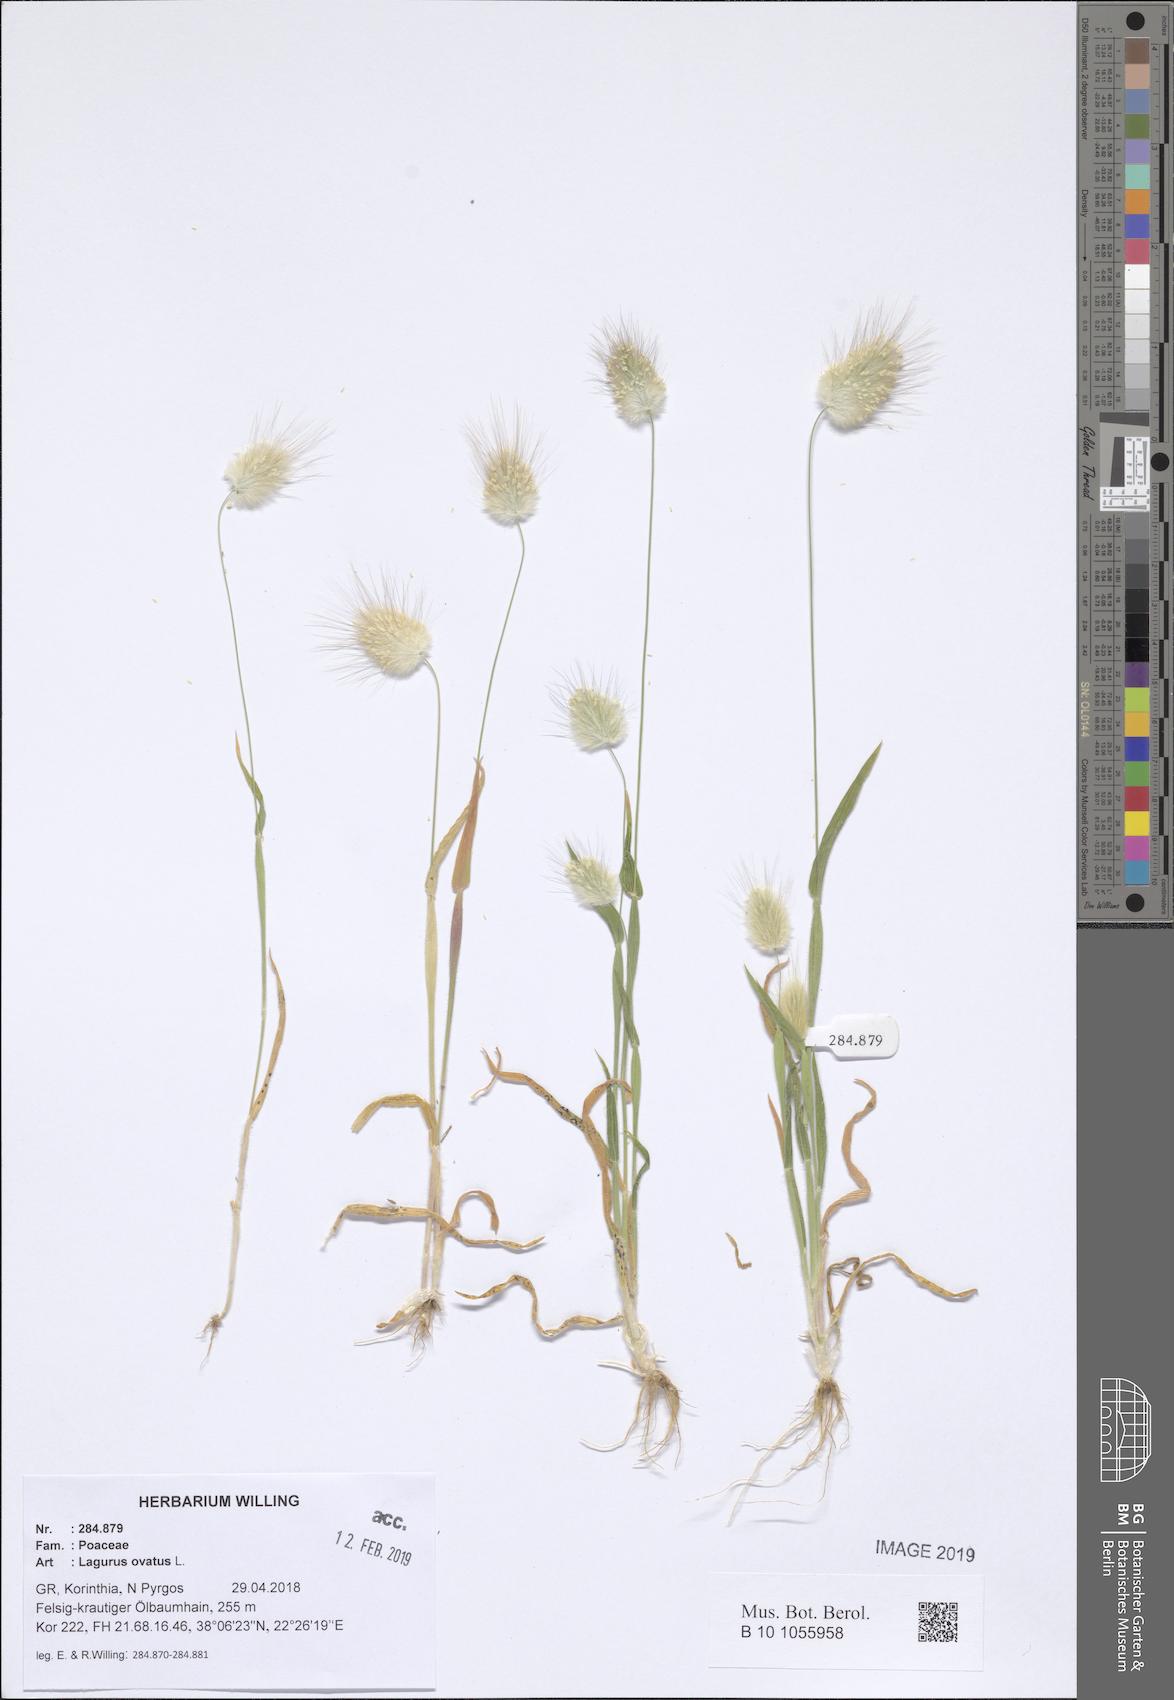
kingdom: Plantae
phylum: Tracheophyta
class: Liliopsida
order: Poales
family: Poaceae
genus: Lagurus
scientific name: Lagurus ovatus
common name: Hare's-tail
